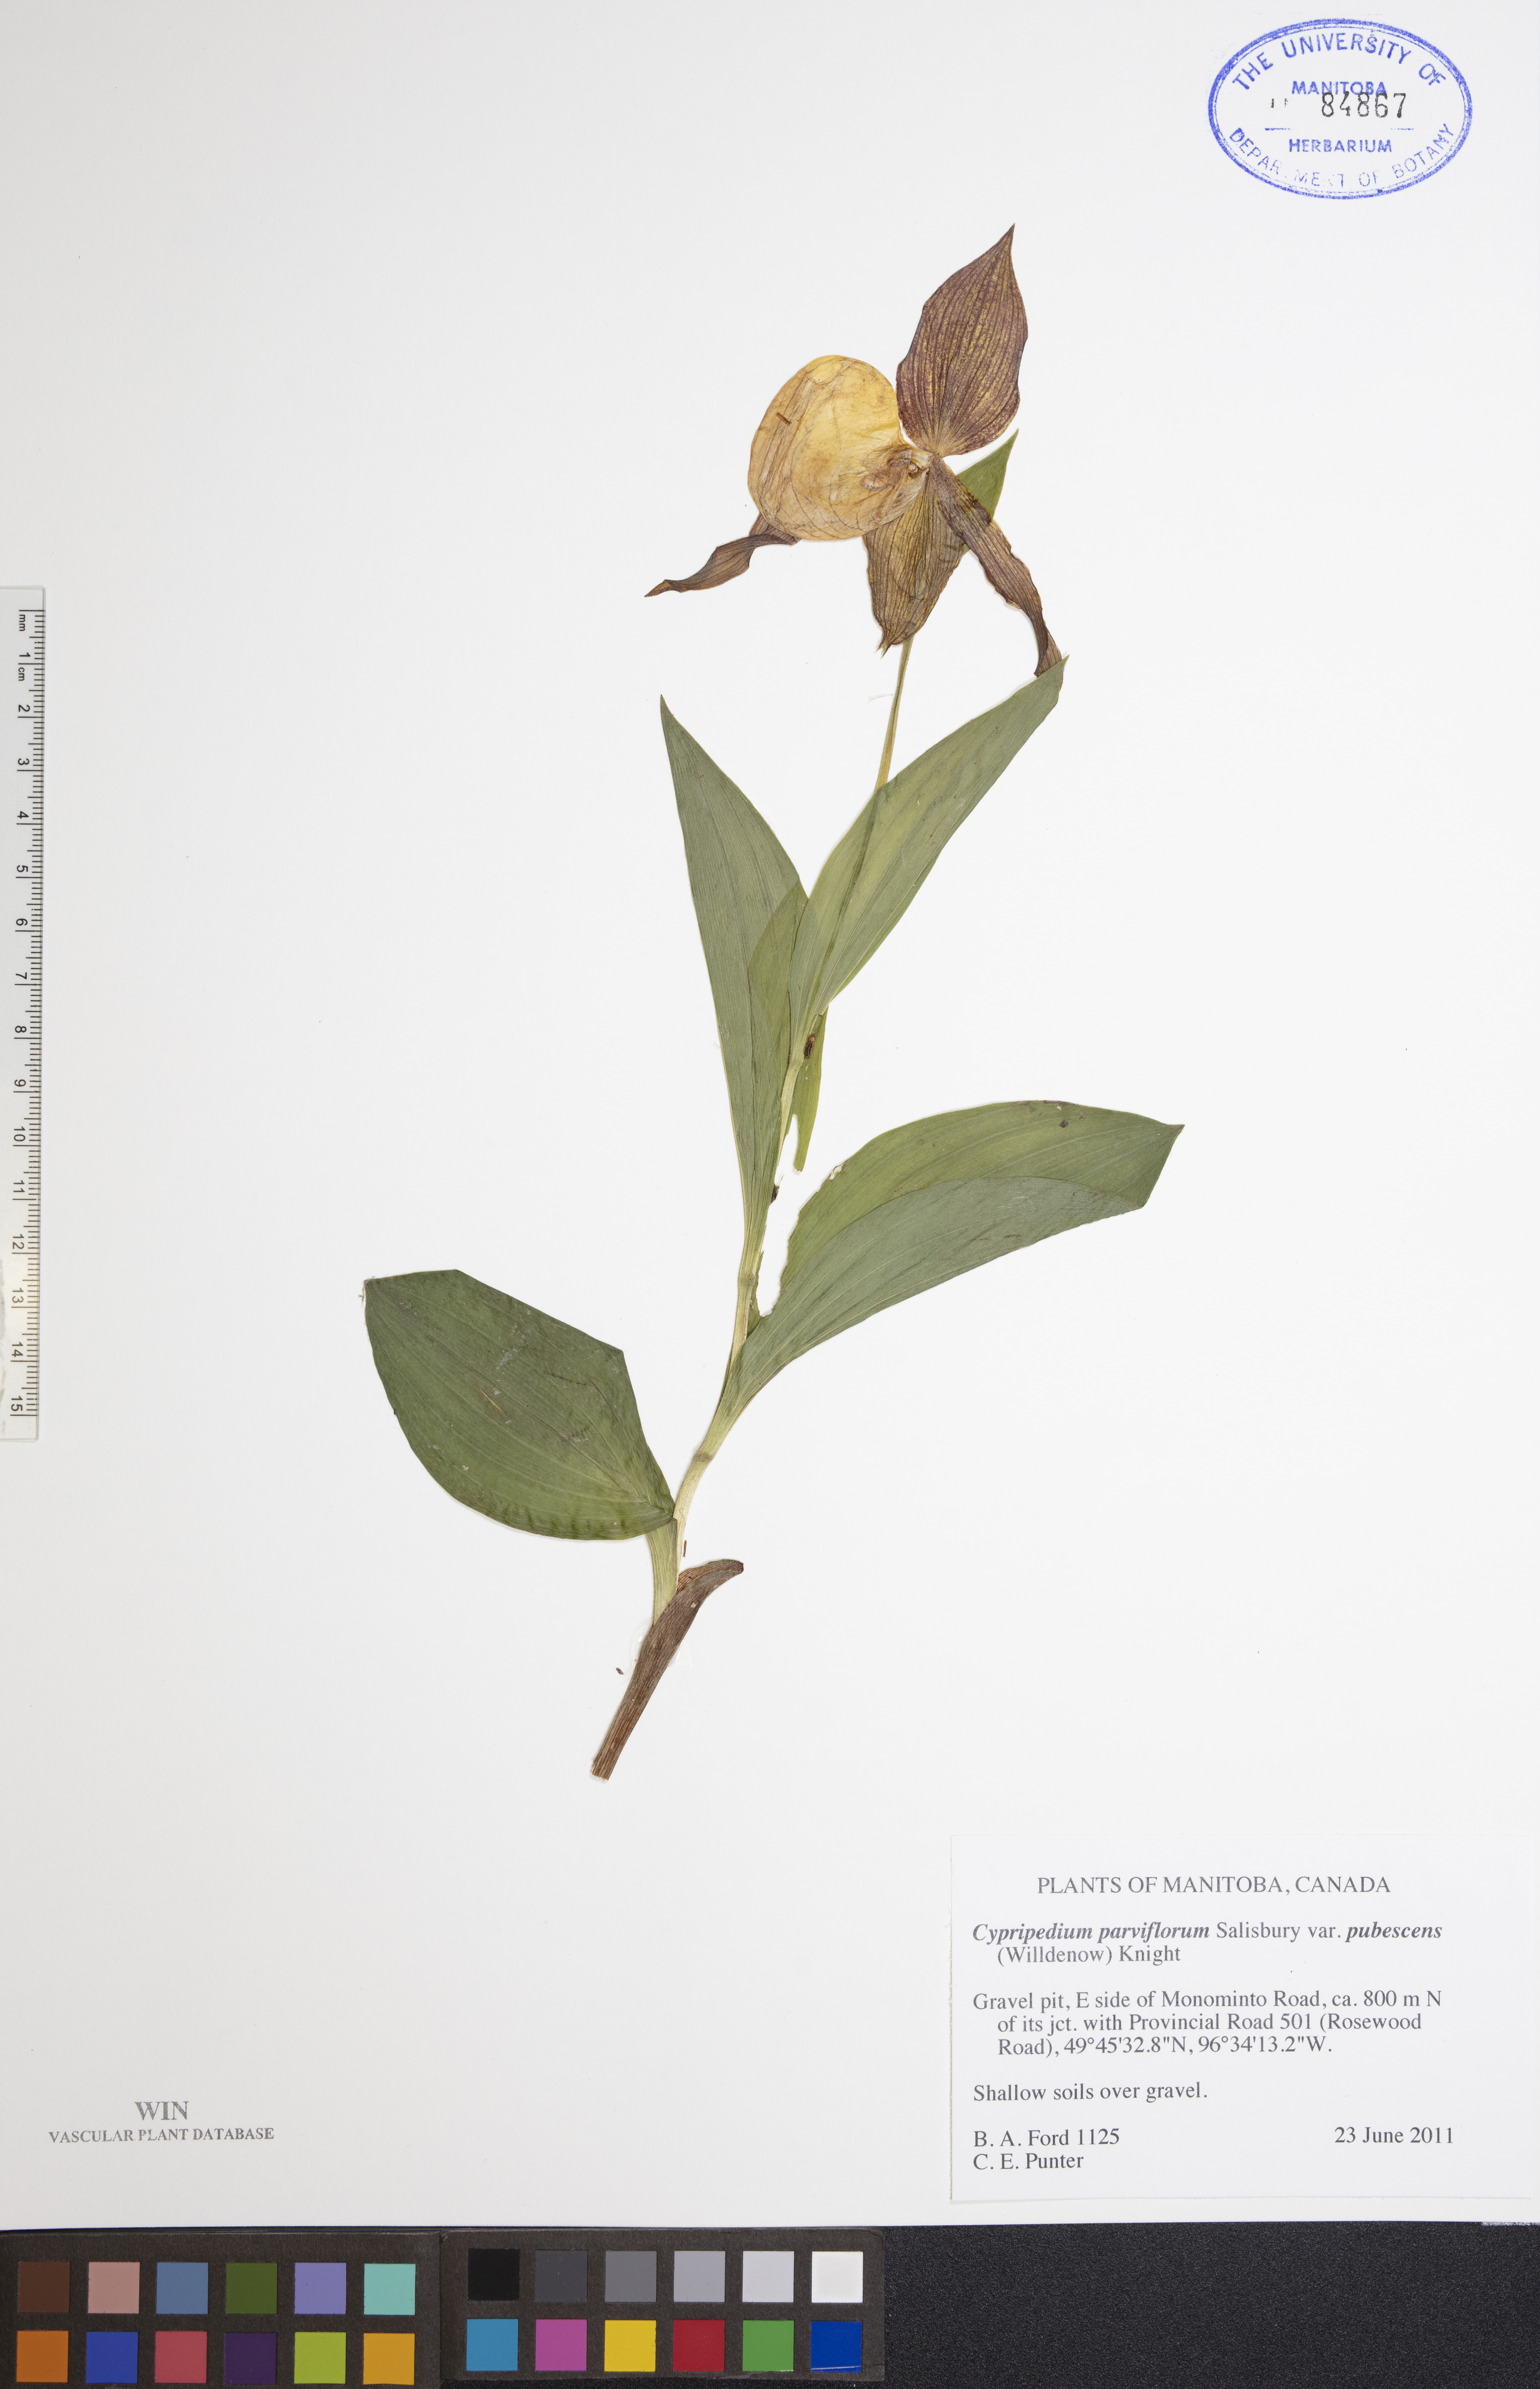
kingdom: Plantae
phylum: Tracheophyta
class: Liliopsida
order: Asparagales
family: Orchidaceae
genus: Cypripedium
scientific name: Cypripedium parviflorum
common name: American yellow lady's-slipper
